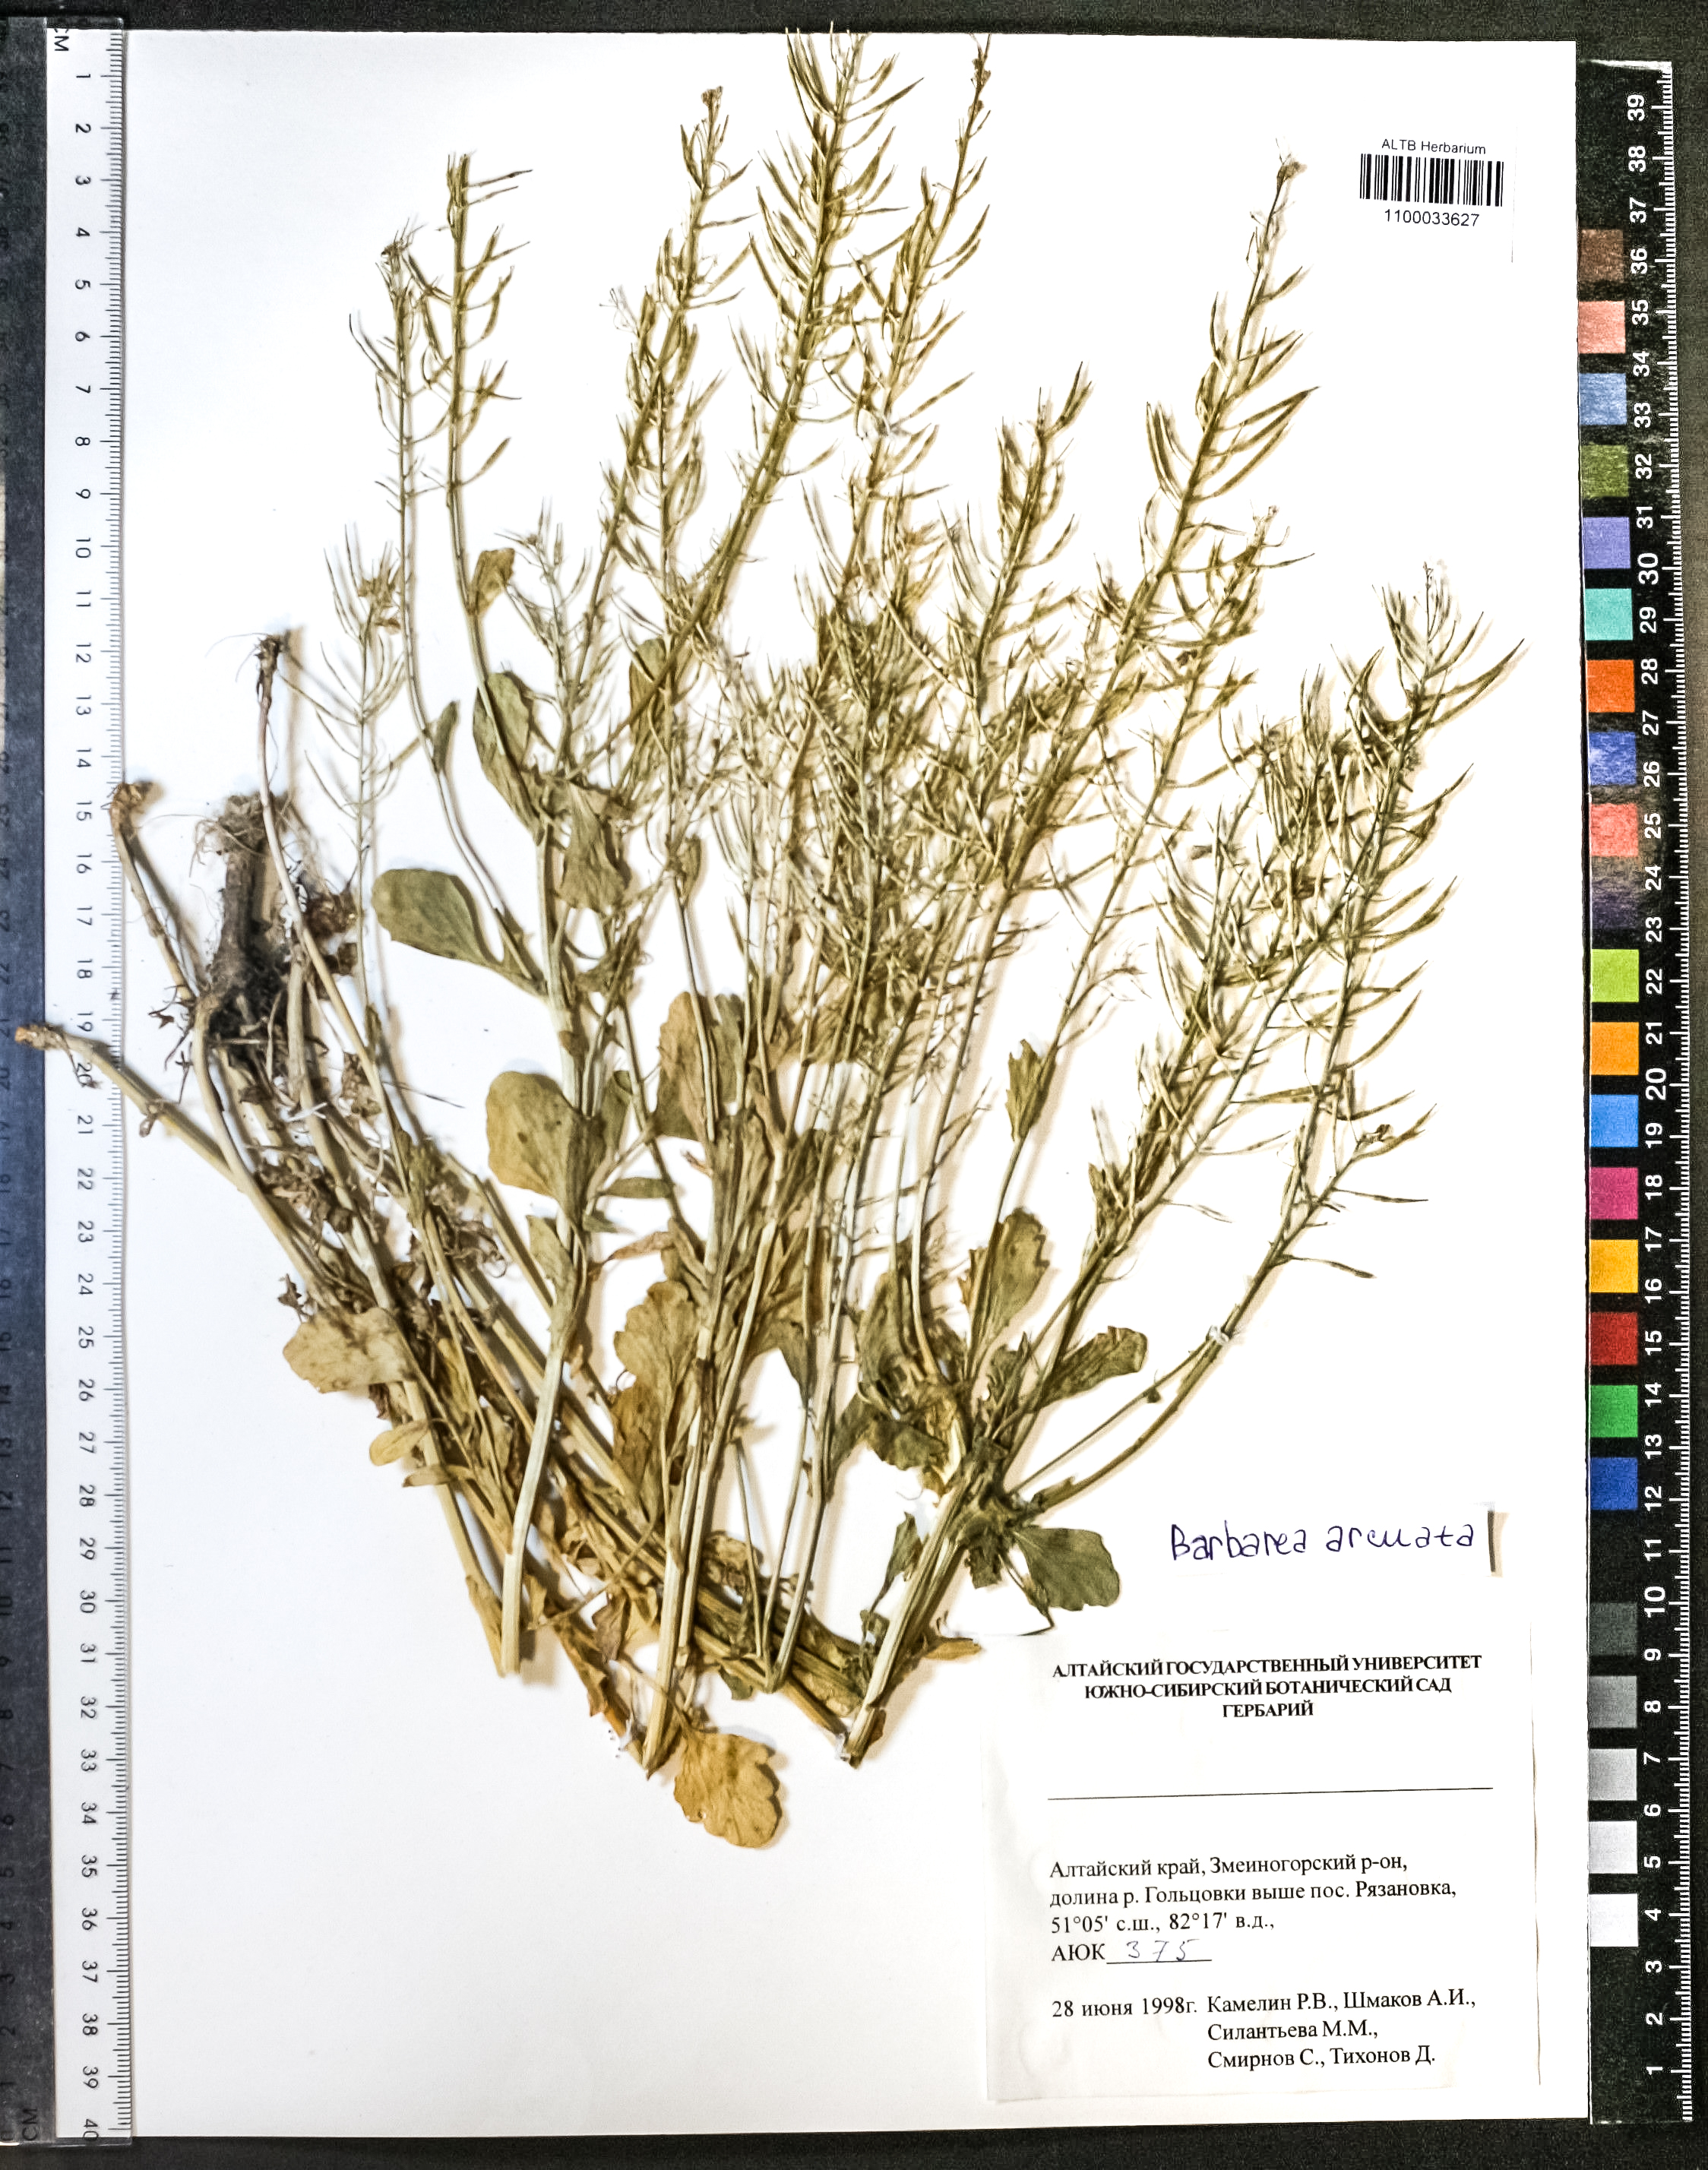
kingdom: Plantae
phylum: Tracheophyta
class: Magnoliopsida
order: Brassicales
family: Brassicaceae
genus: Barbarea
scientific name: Barbarea vulgaris
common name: Cressy-greens
